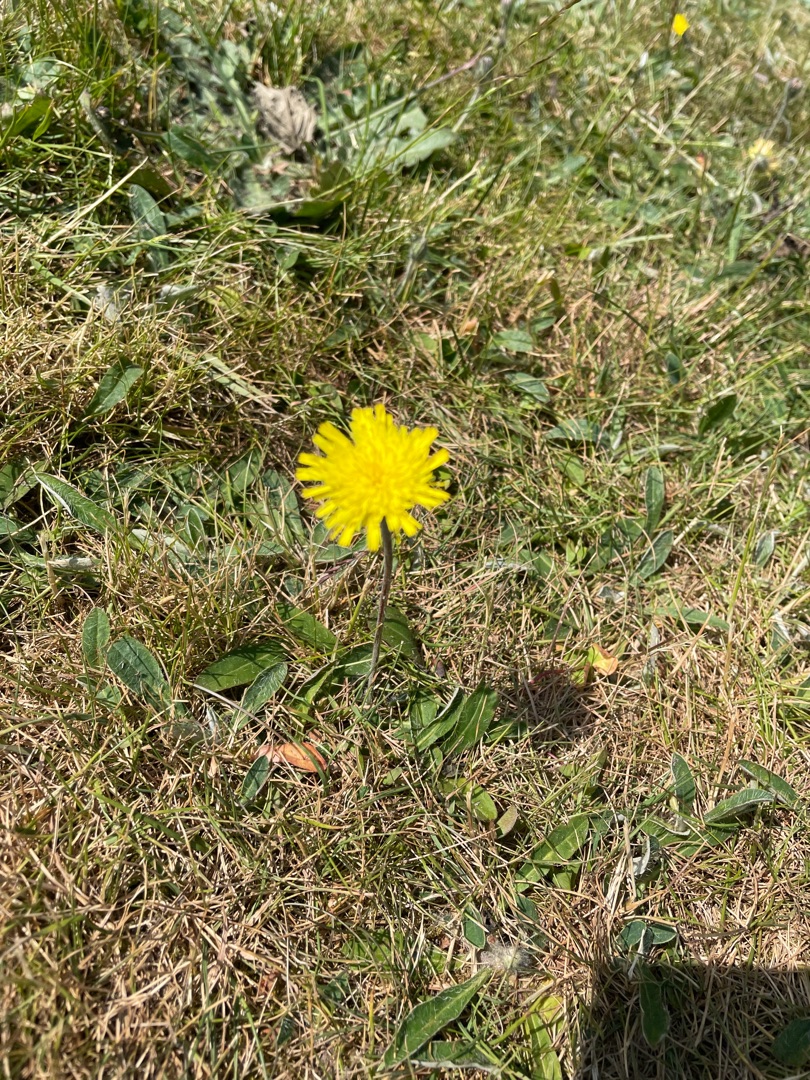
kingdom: Plantae
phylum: Tracheophyta
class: Magnoliopsida
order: Asterales
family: Asteraceae
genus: Pilosella
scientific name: Pilosella officinarum
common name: Håret høgeurt
